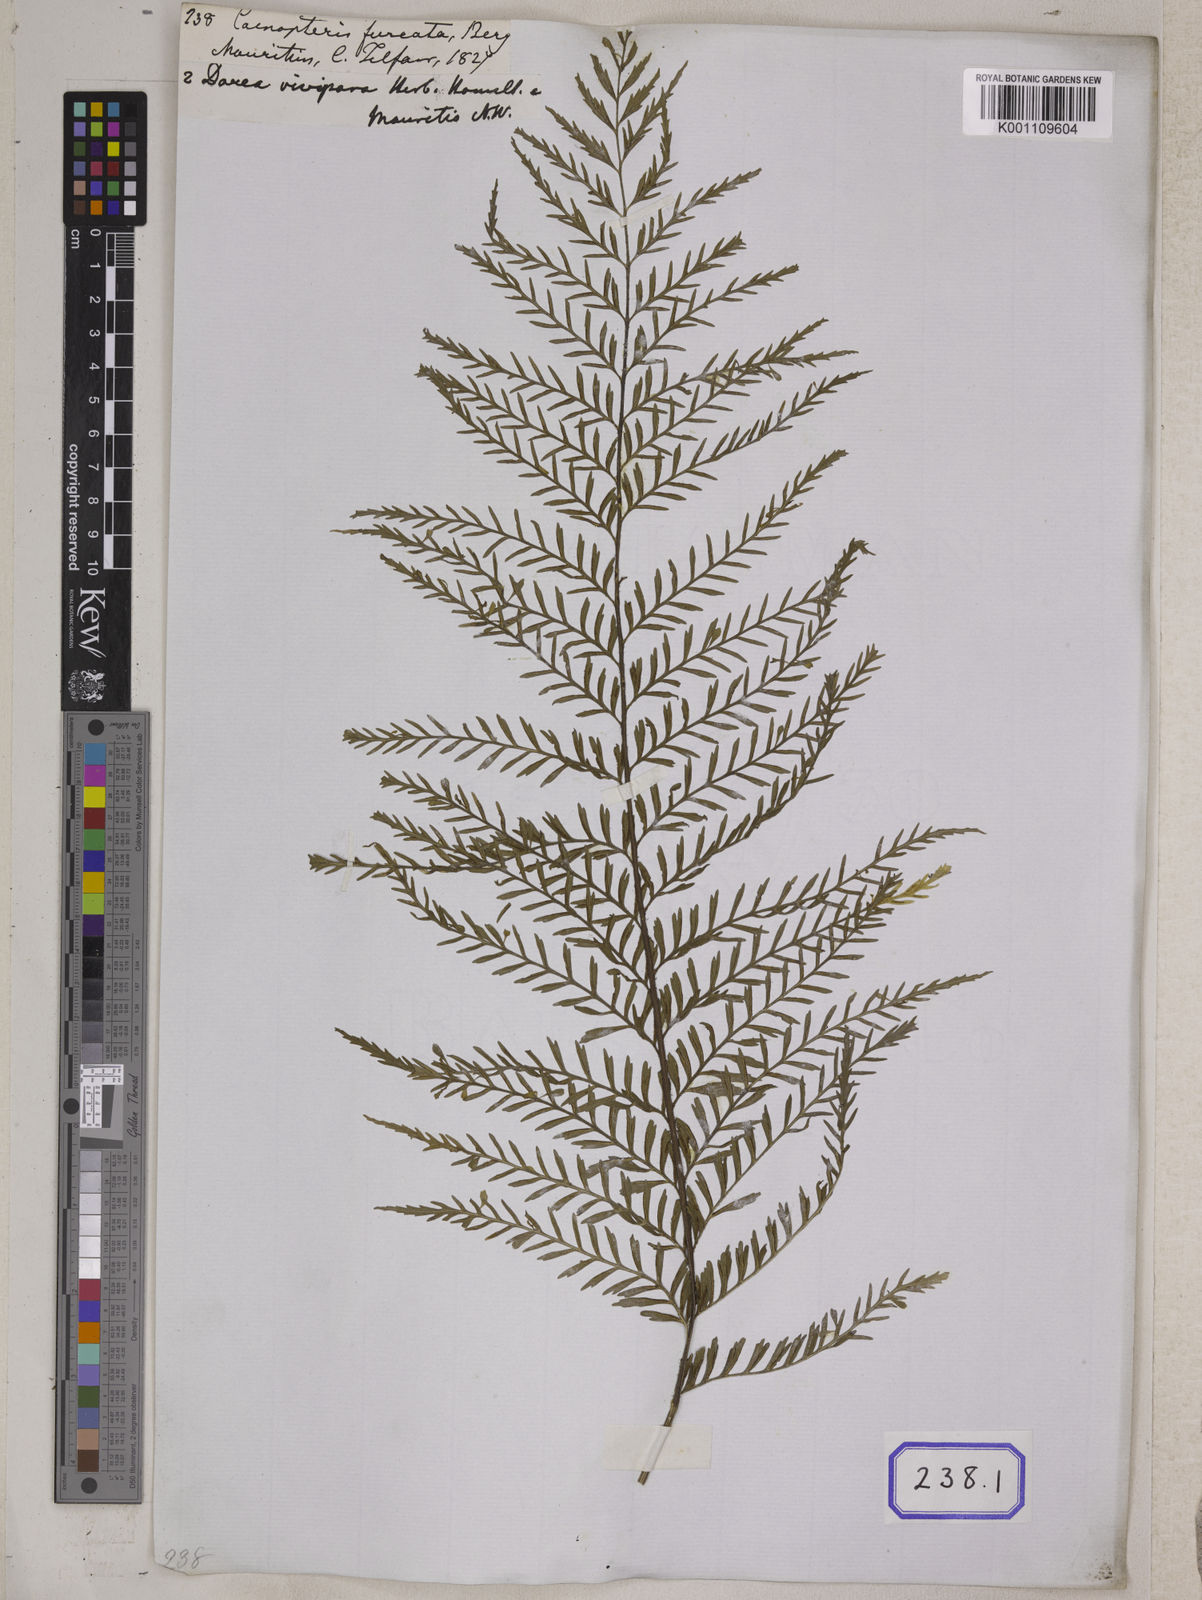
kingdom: Plantae
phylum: Tracheophyta
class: Polypodiopsida
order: Polypodiales
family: Aspleniaceae
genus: Asplenium
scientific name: Asplenium rutifolium
